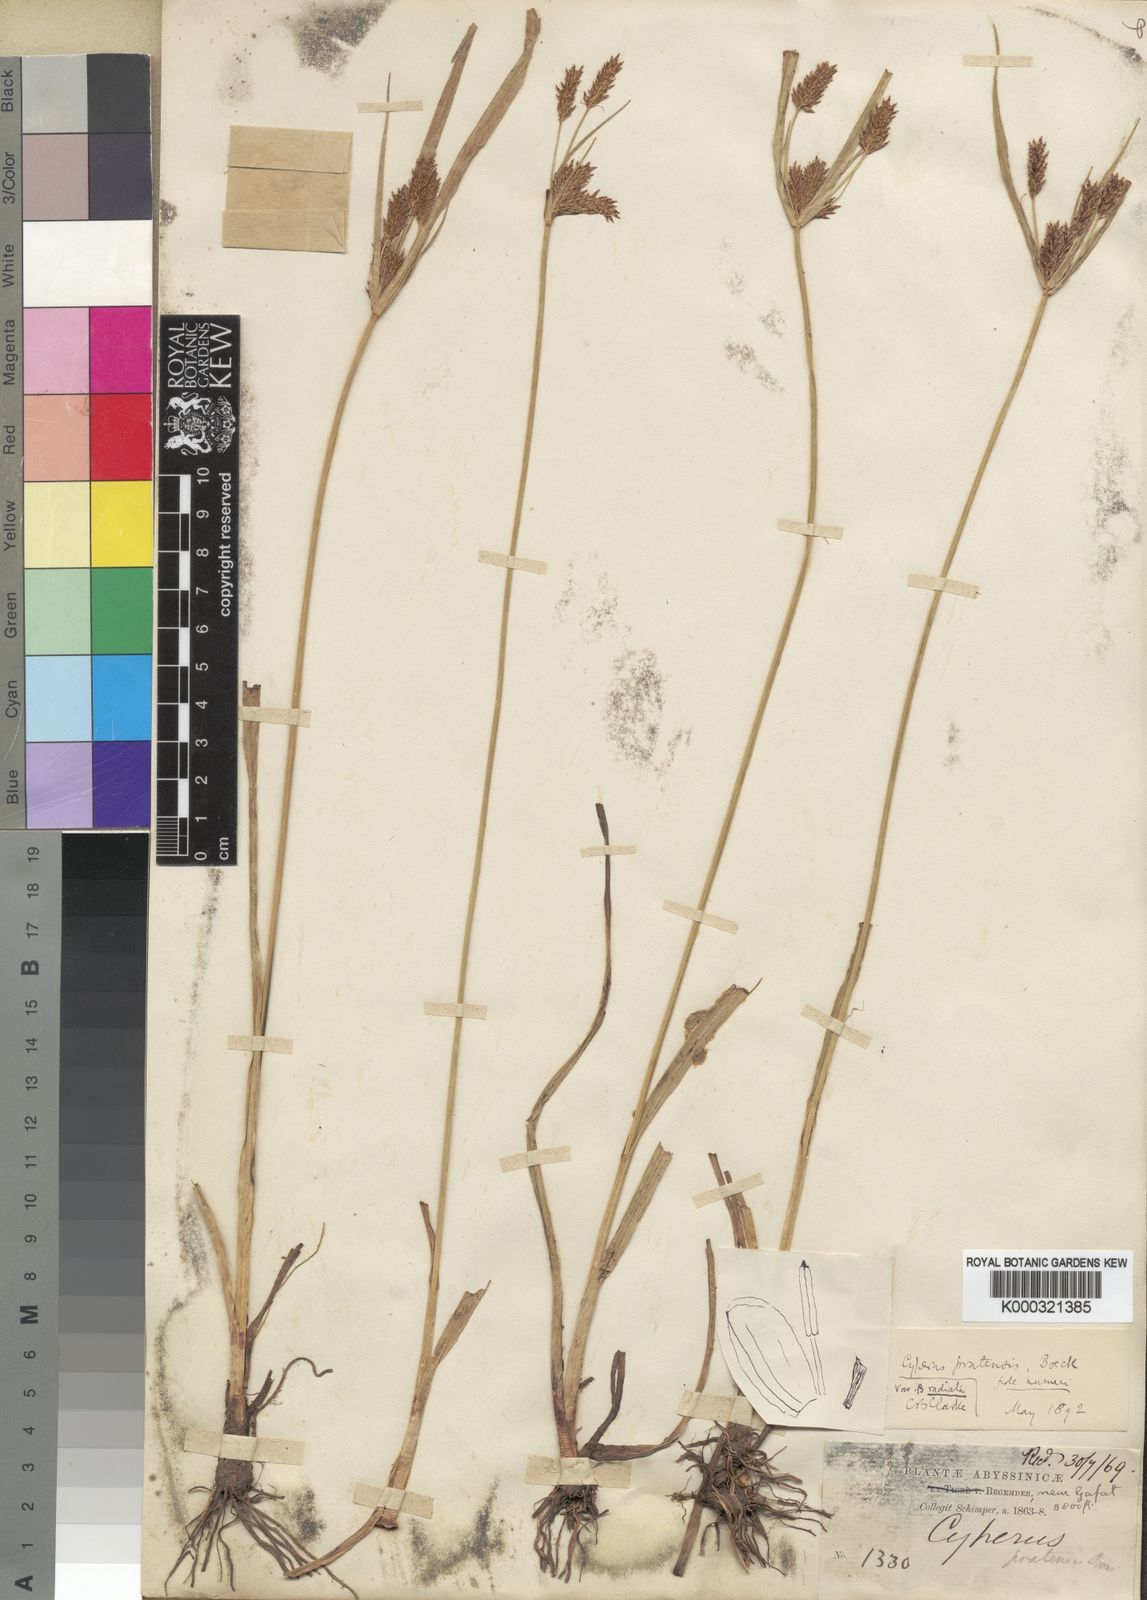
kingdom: Plantae
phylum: Tracheophyta
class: Liliopsida
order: Poales
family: Cyperaceae
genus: Cyperus
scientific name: Cyperus pratensis
